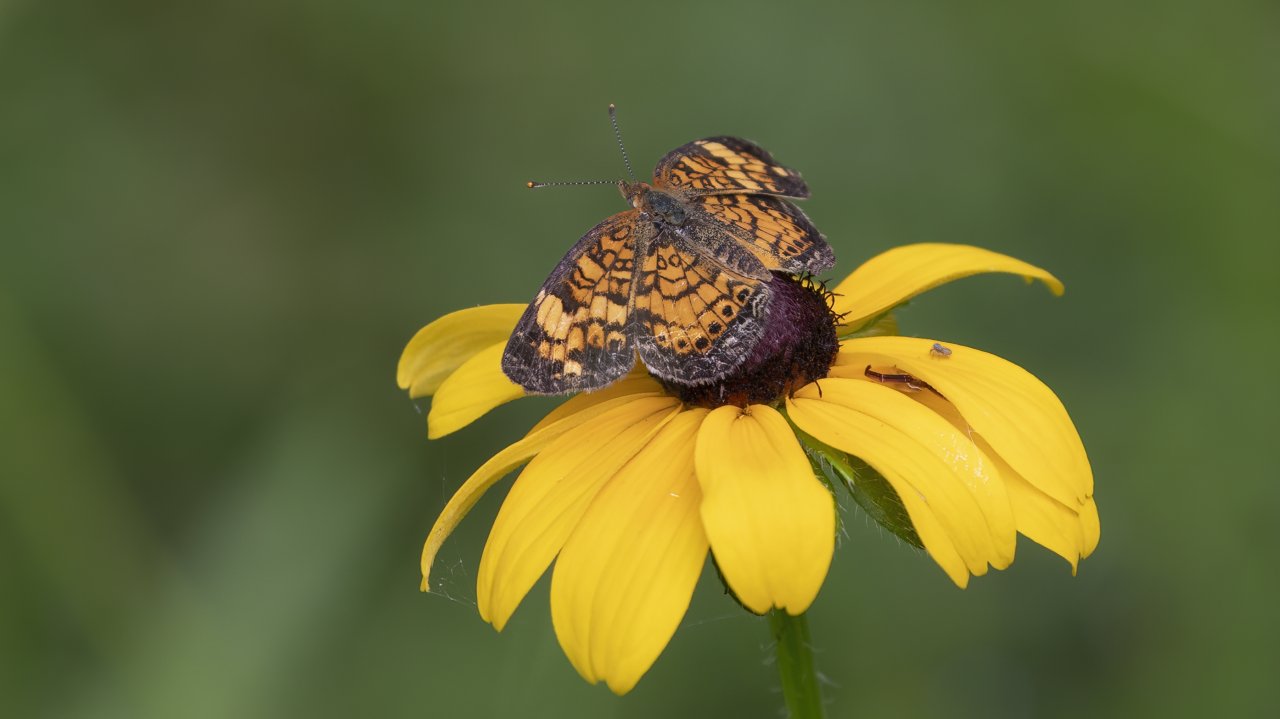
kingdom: Animalia
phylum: Arthropoda
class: Insecta
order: Lepidoptera
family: Nymphalidae
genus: Phyciodes
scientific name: Phyciodes tharos
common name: Pearl Crescent
